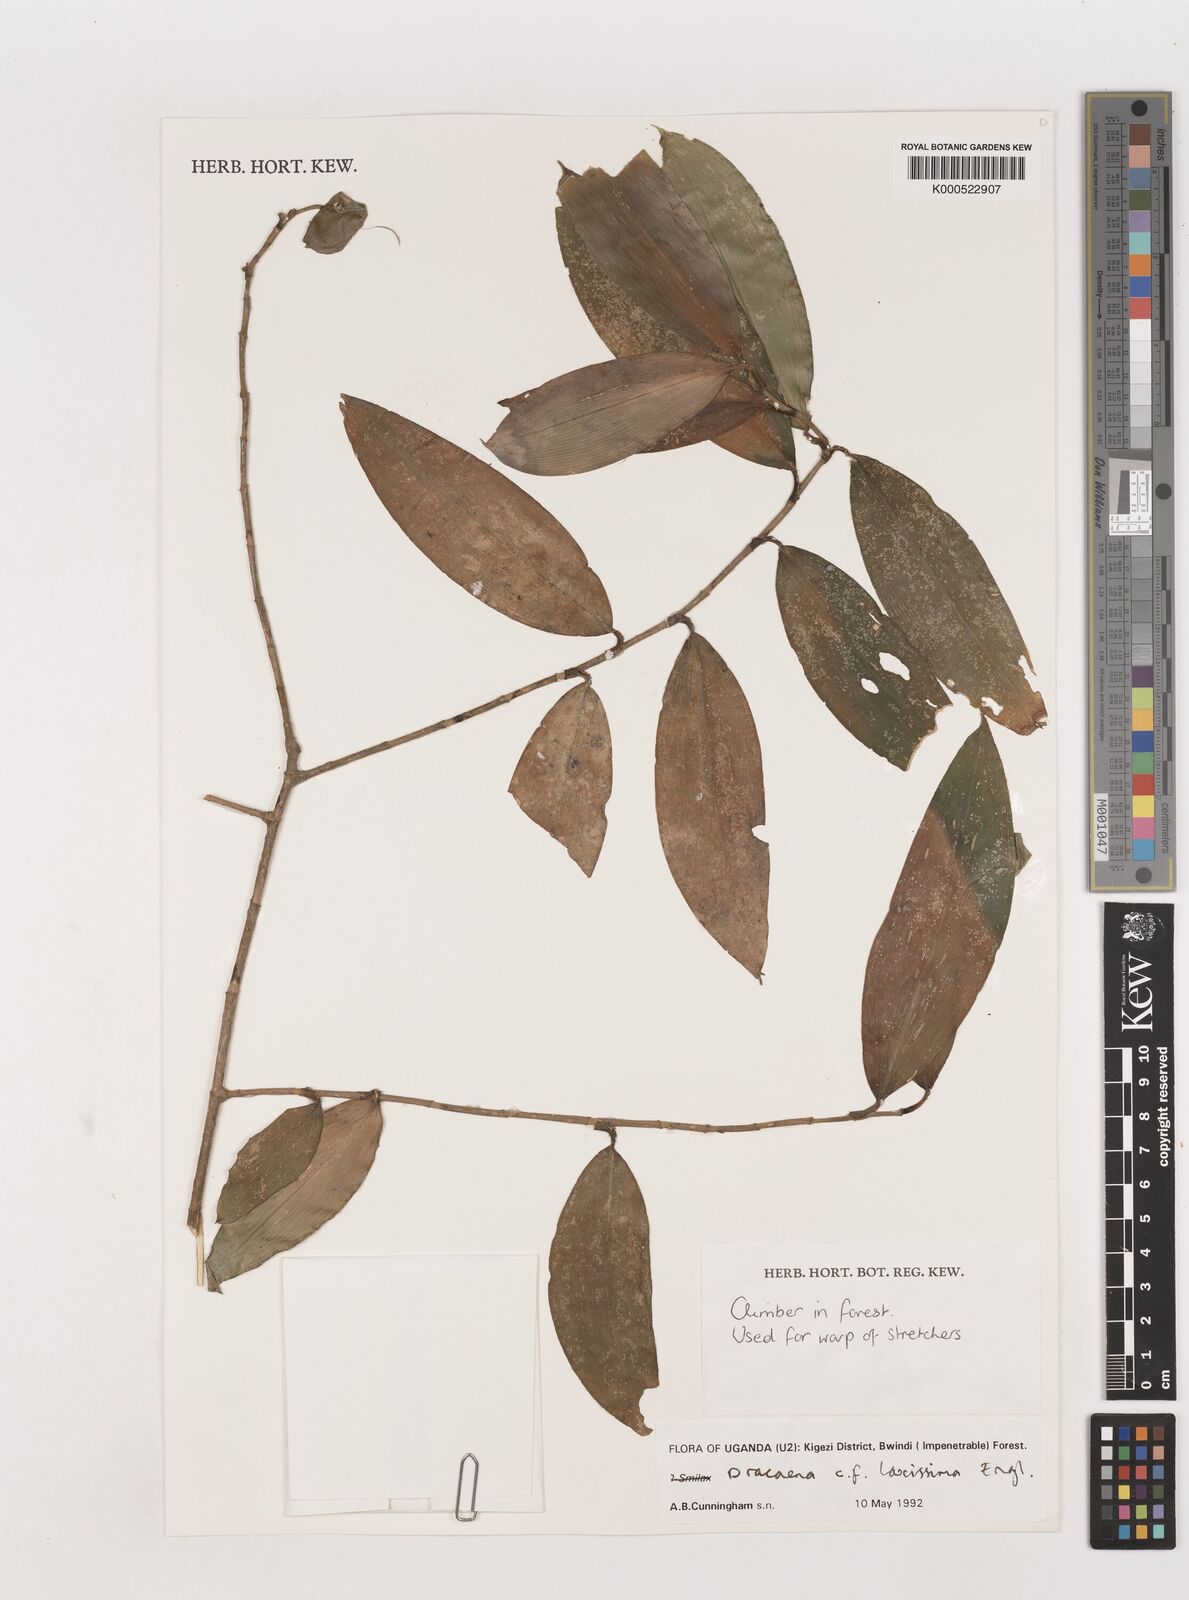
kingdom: Plantae
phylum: Tracheophyta
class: Liliopsida
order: Asparagales
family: Asparagaceae
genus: Dracaena
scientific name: Dracaena laxissima
